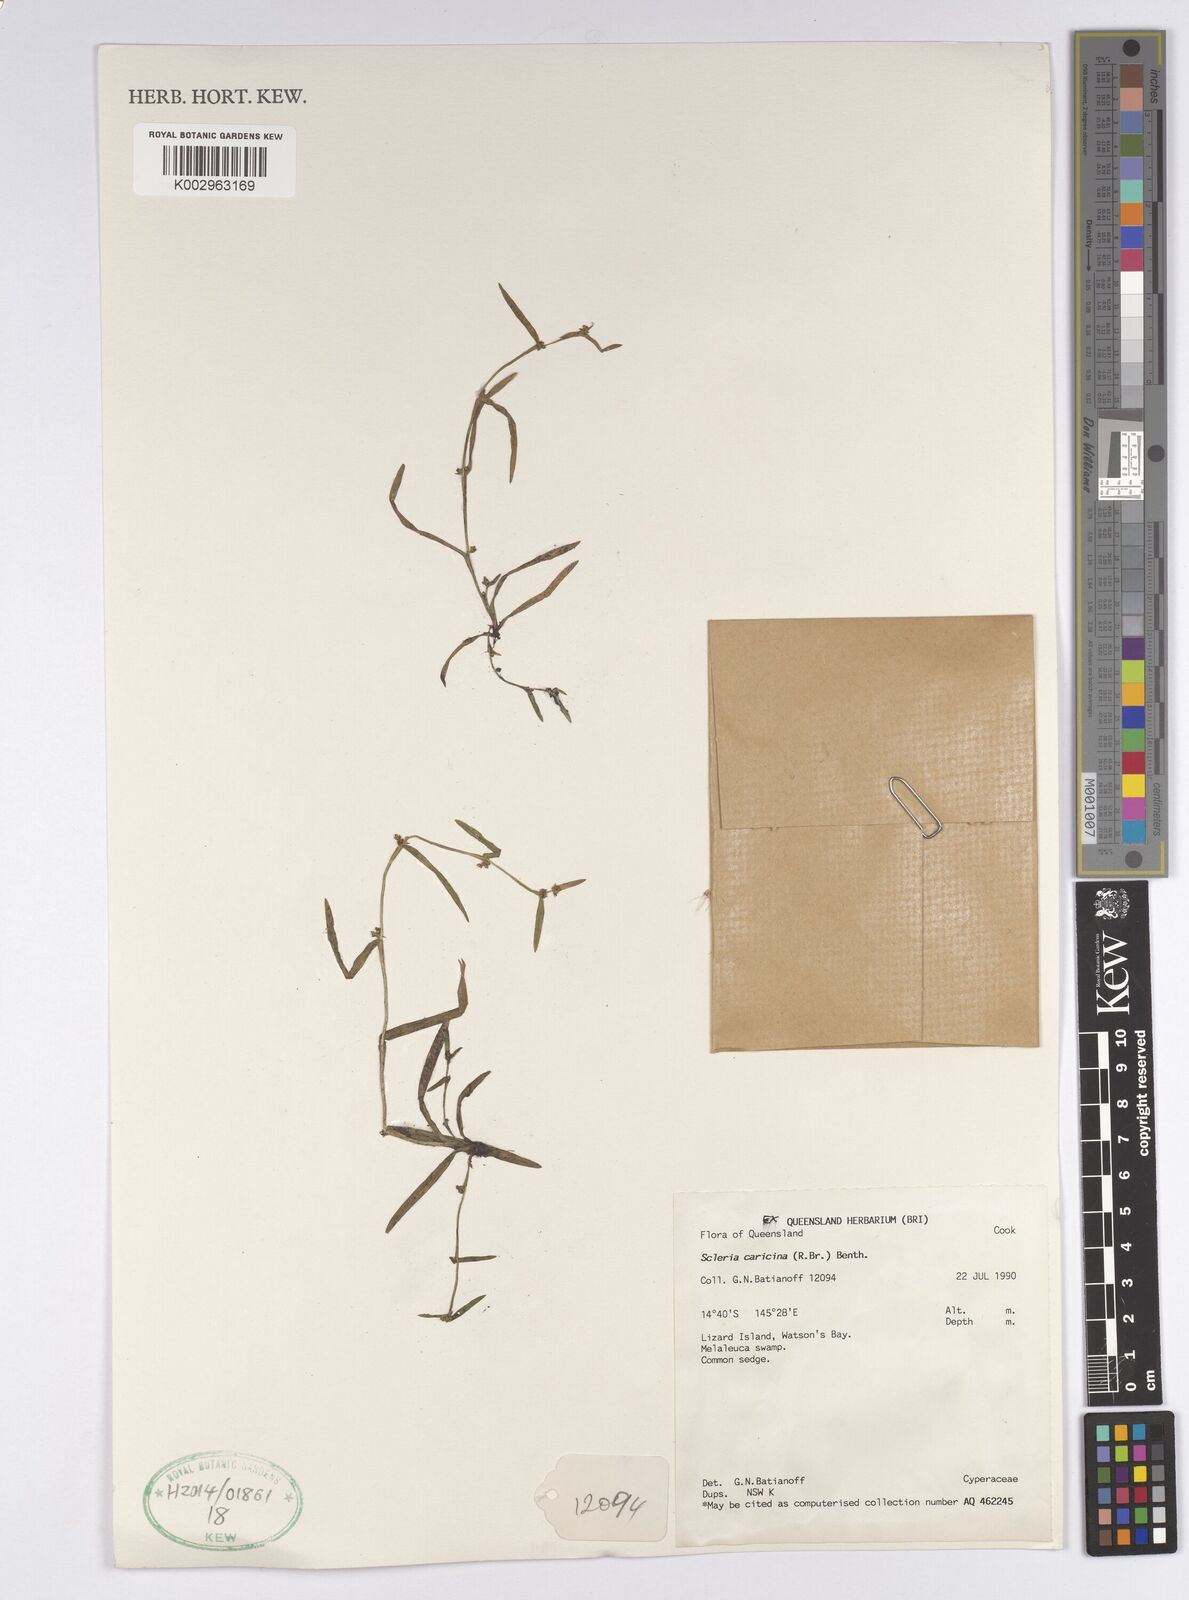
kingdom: Plantae
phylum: Tracheophyta
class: Liliopsida
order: Poales
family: Cyperaceae
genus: Diplacrum
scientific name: Diplacrum caricinum
